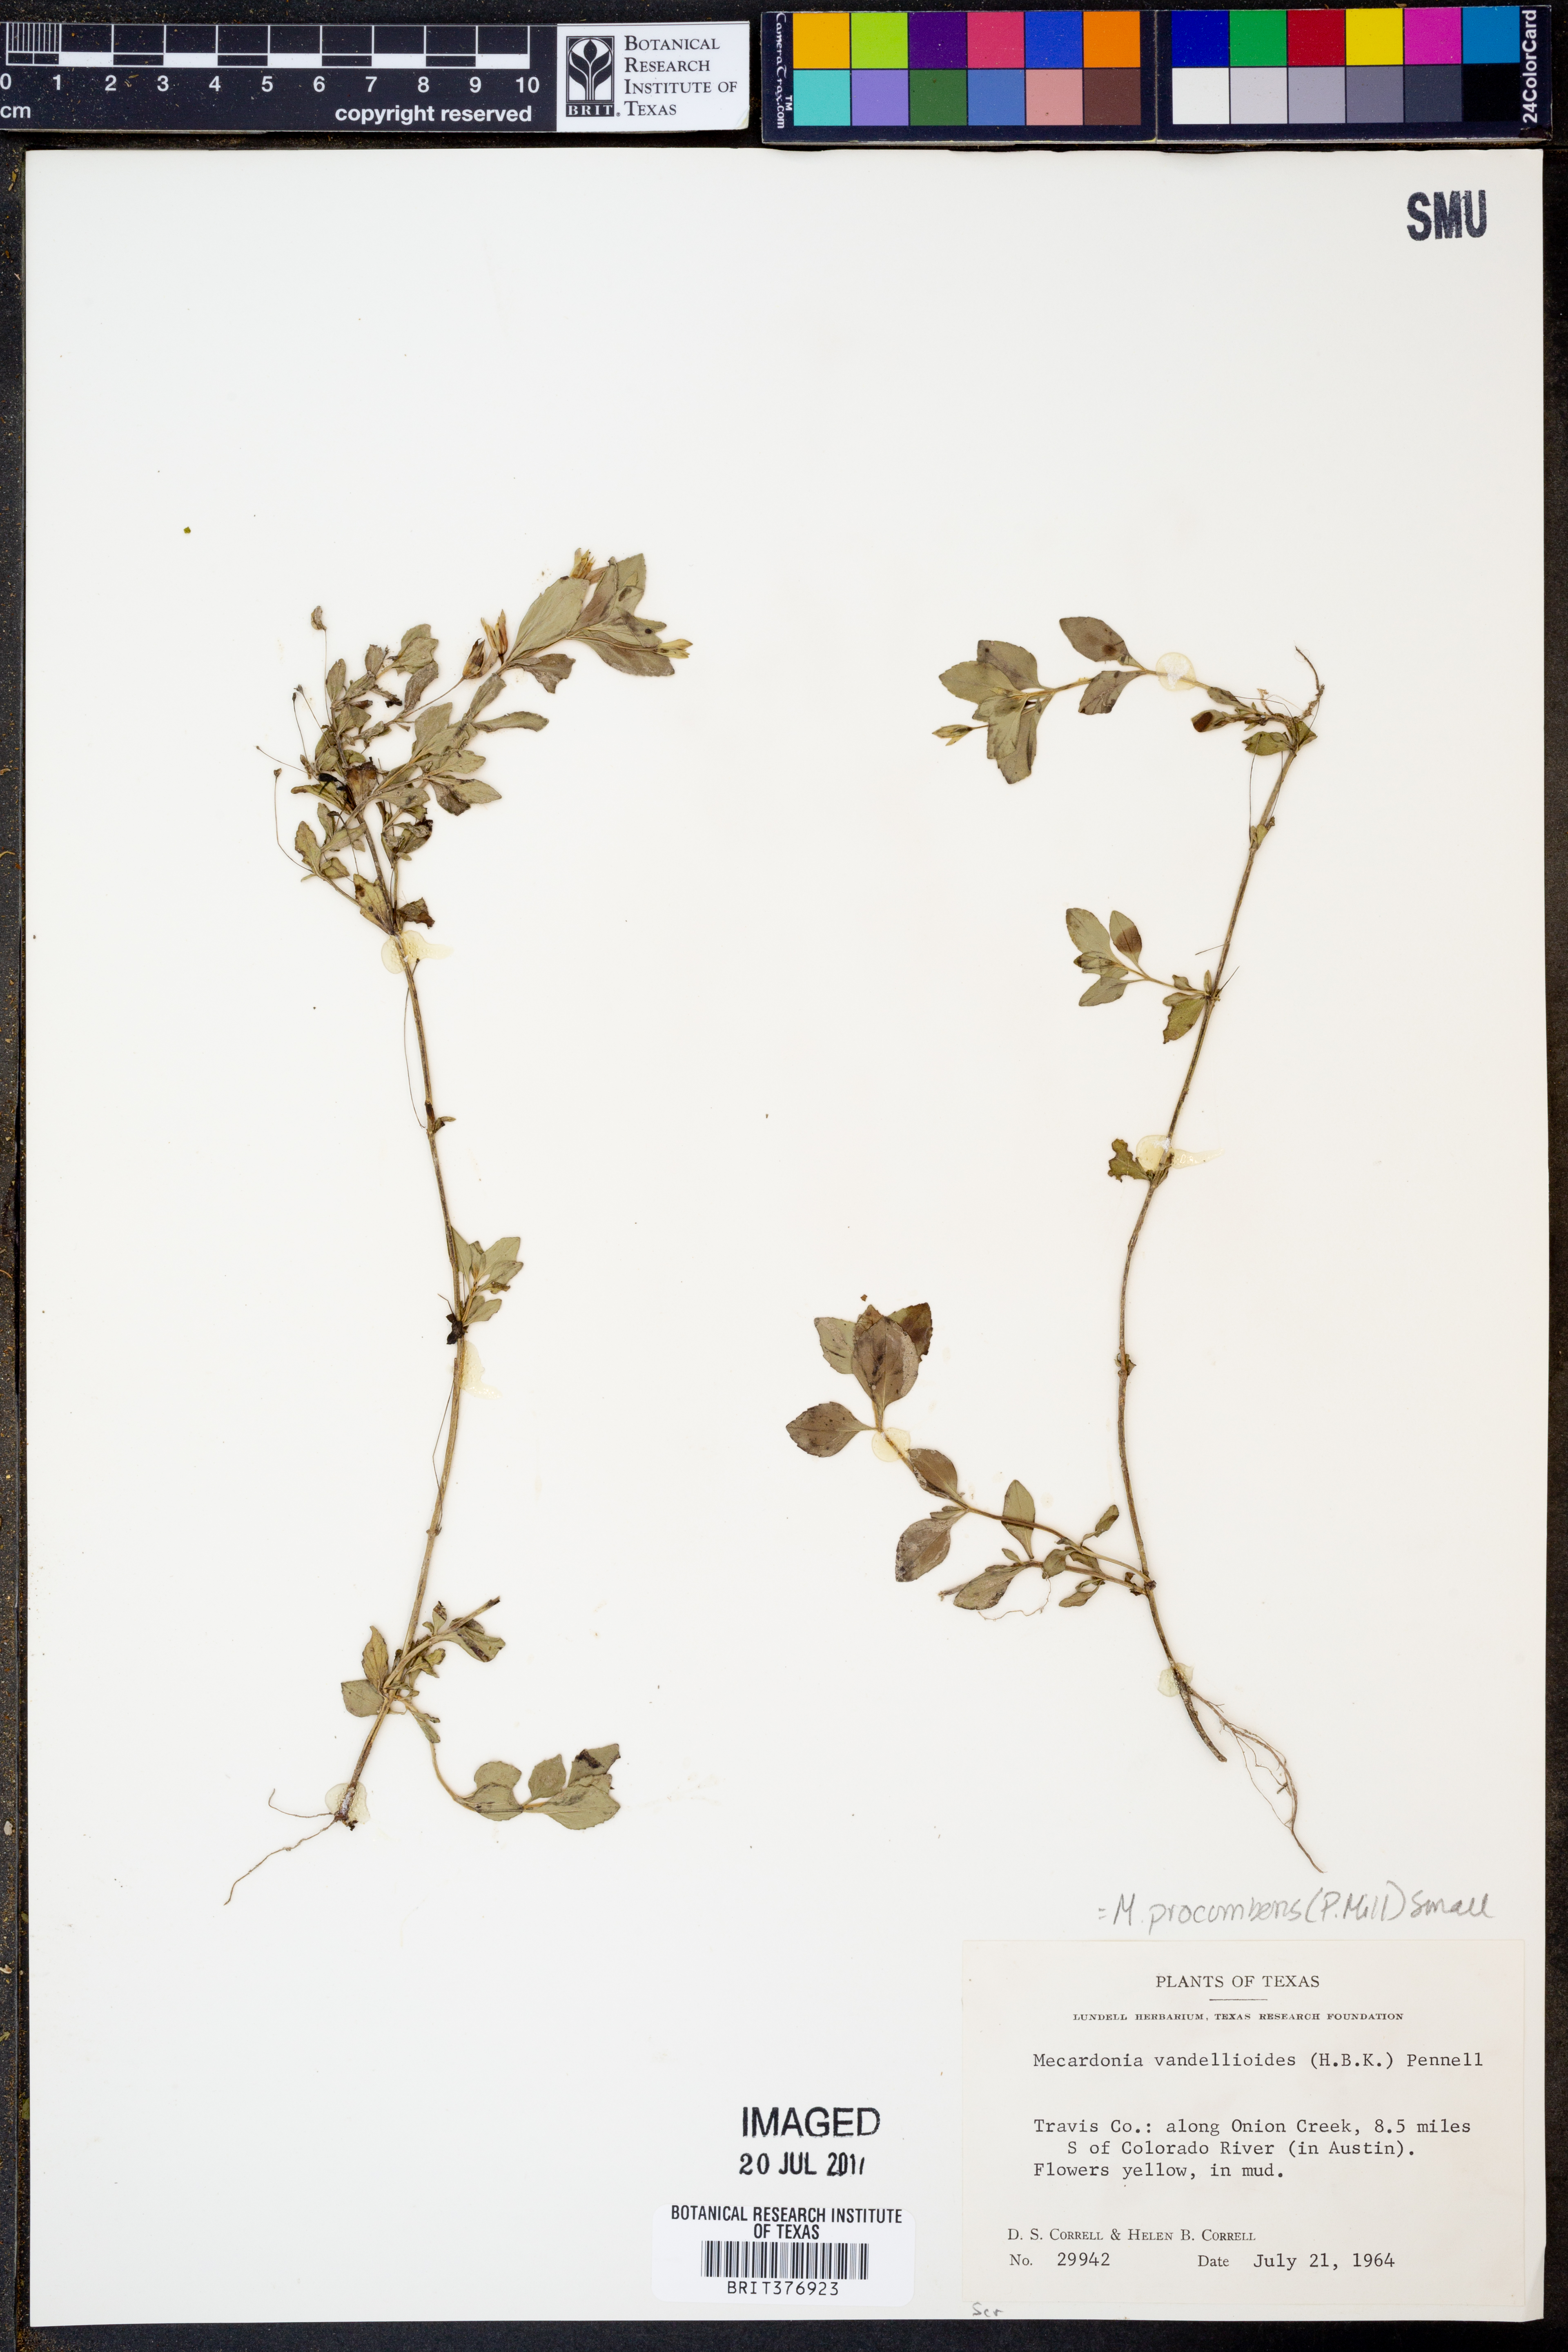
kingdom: Plantae
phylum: Tracheophyta
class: Magnoliopsida
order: Lamiales
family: Plantaginaceae
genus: Mecardonia
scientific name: Mecardonia procumbens
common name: Baby jump-up
